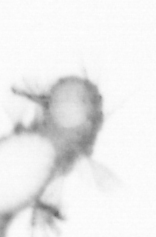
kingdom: Animalia
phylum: Annelida
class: Polychaeta
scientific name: Polychaeta
